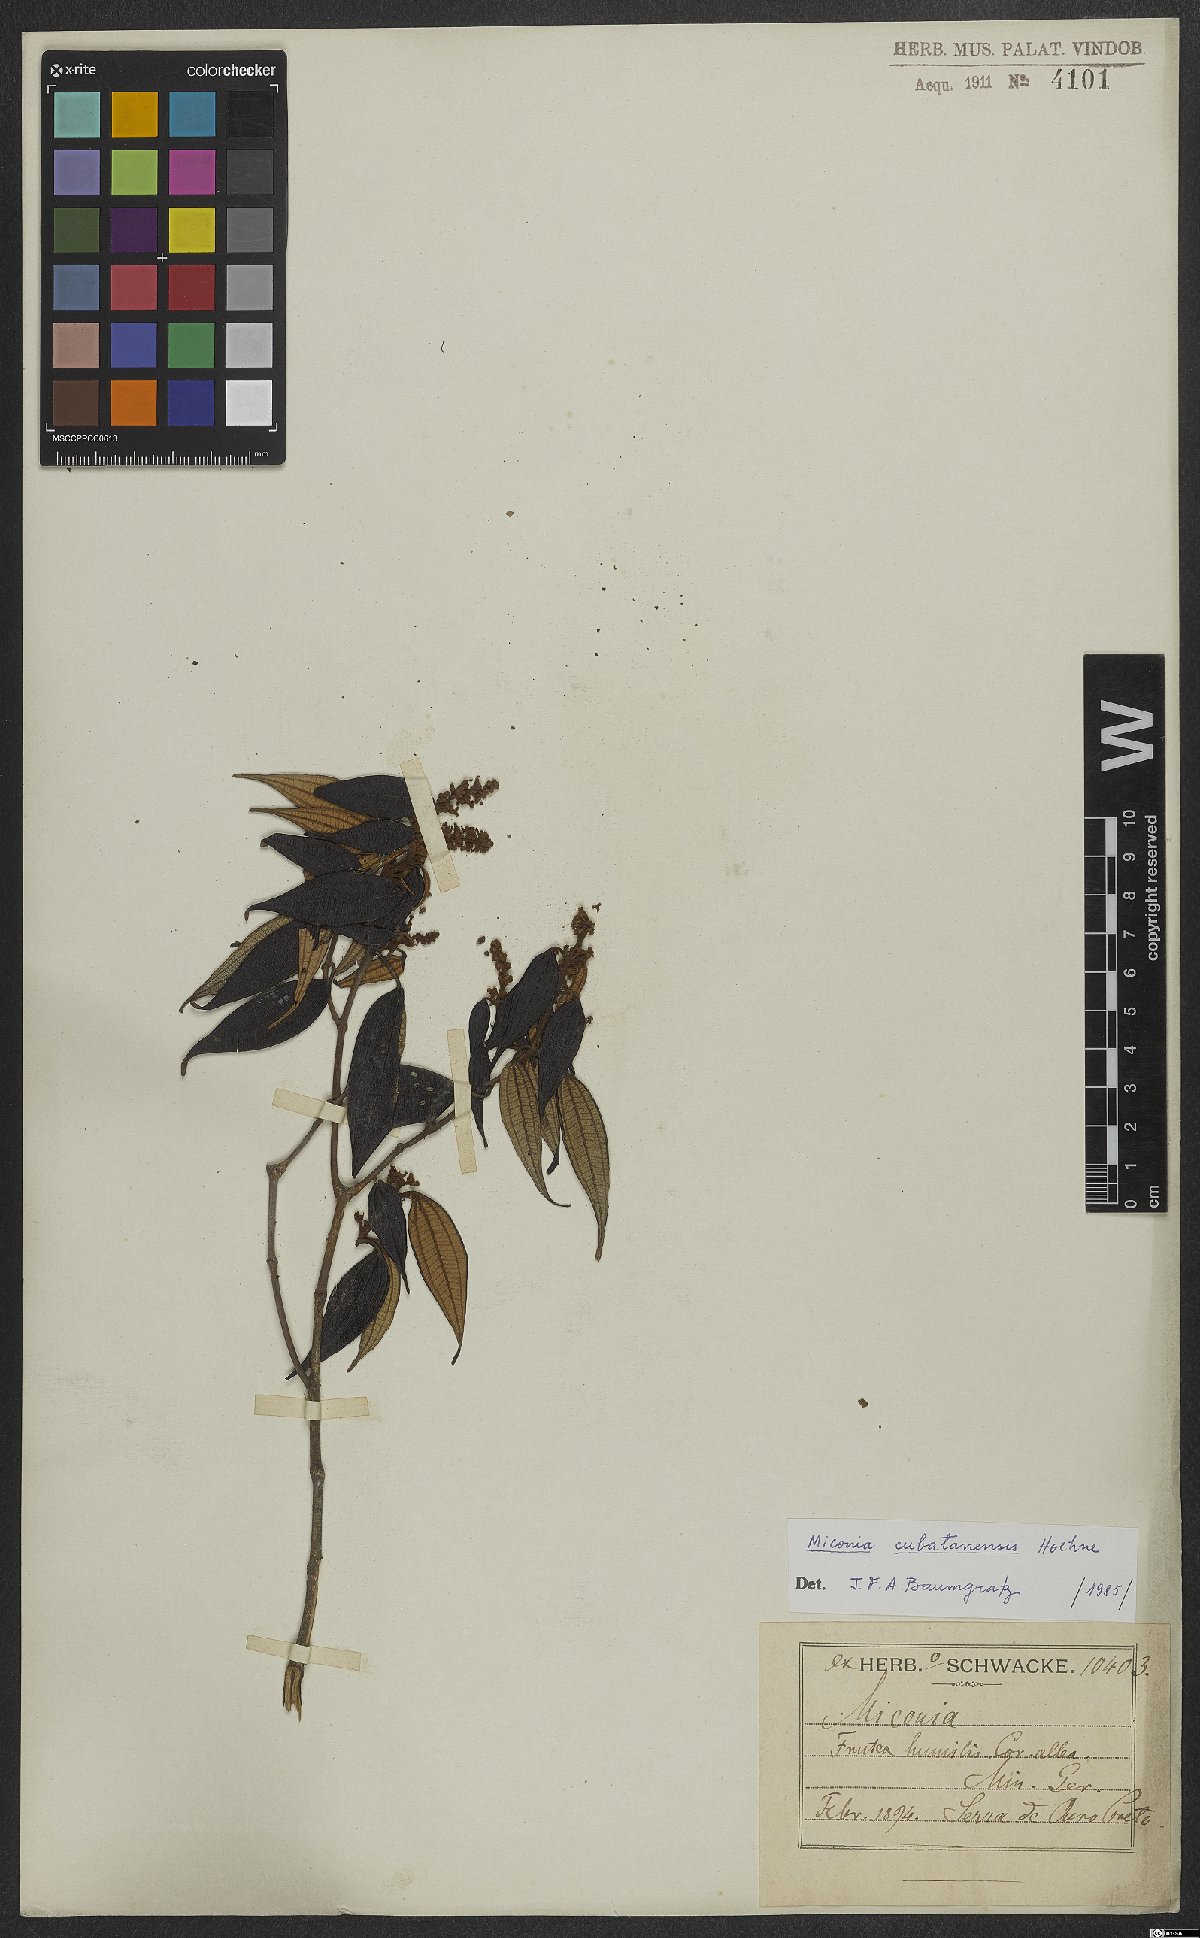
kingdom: Plantae
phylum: Tracheophyta
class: Magnoliopsida
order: Myrtales
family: Melastomataceae
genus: Miconia
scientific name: Miconia cubatanensis
